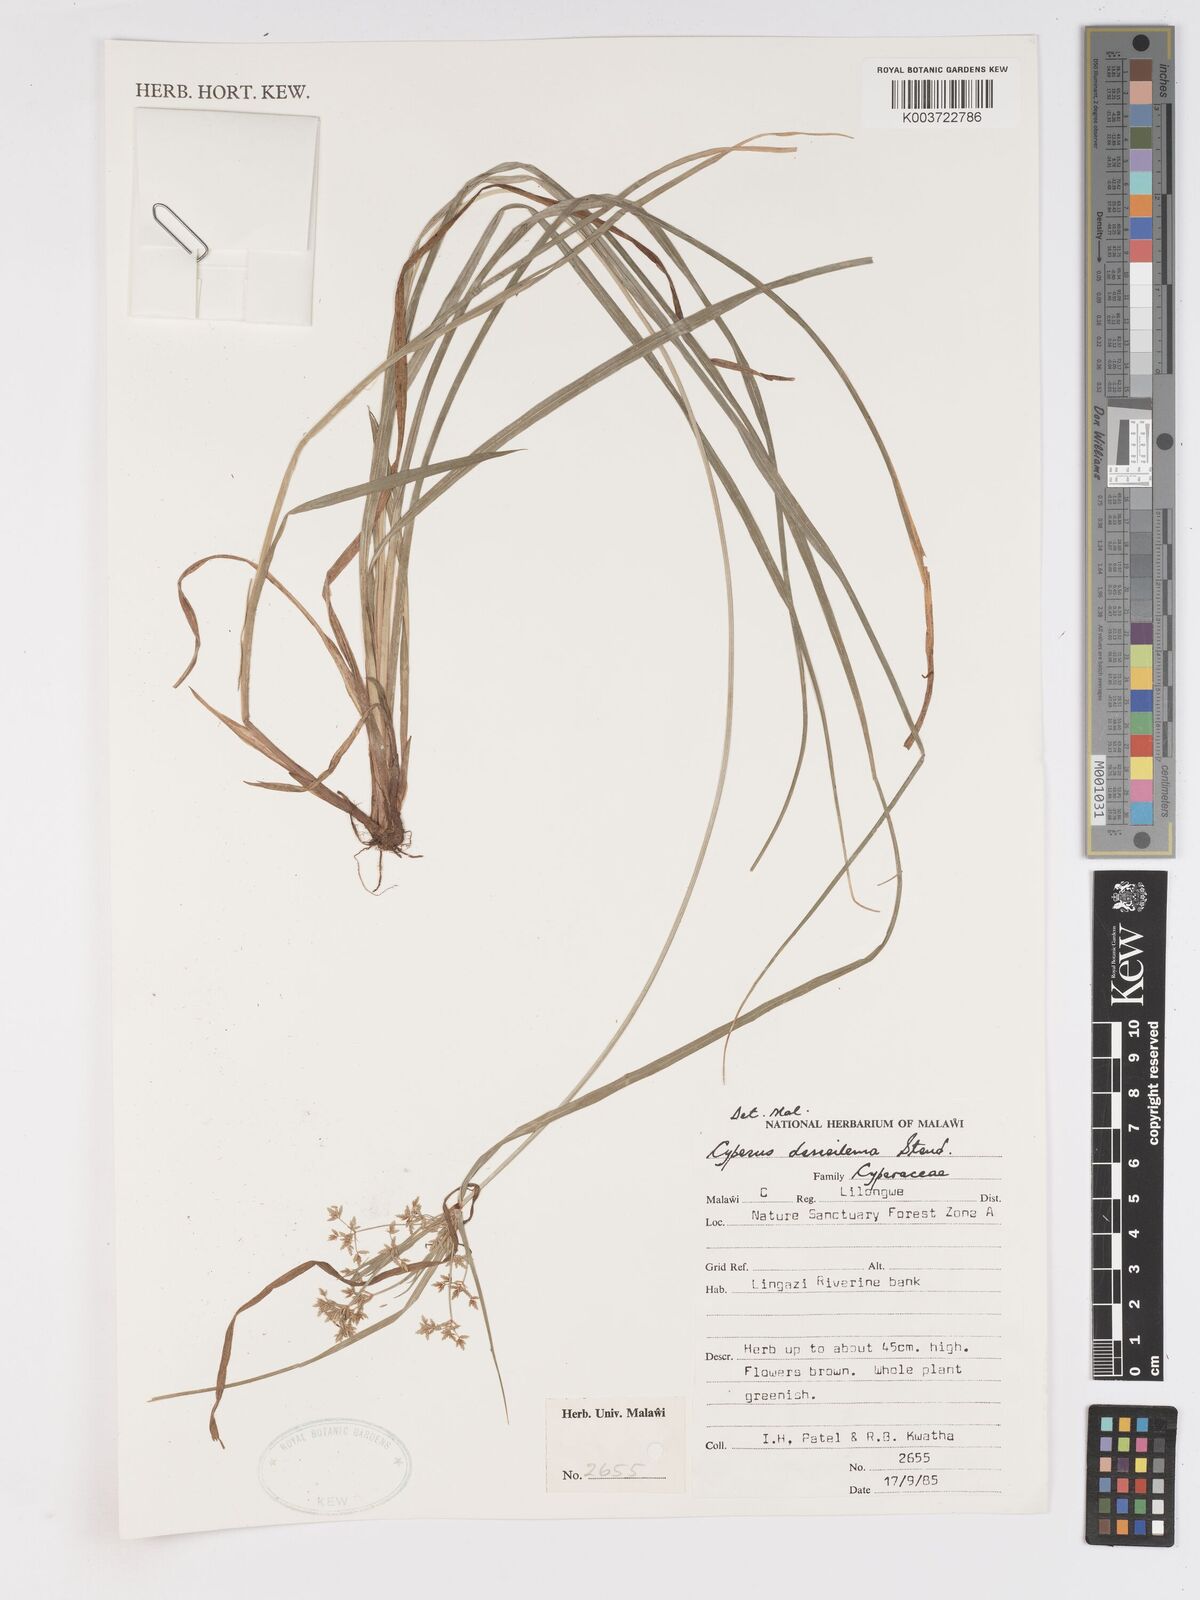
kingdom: Plantae
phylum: Tracheophyta
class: Liliopsida
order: Poales
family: Cyperaceae
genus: Cyperus
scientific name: Cyperus derreilema
